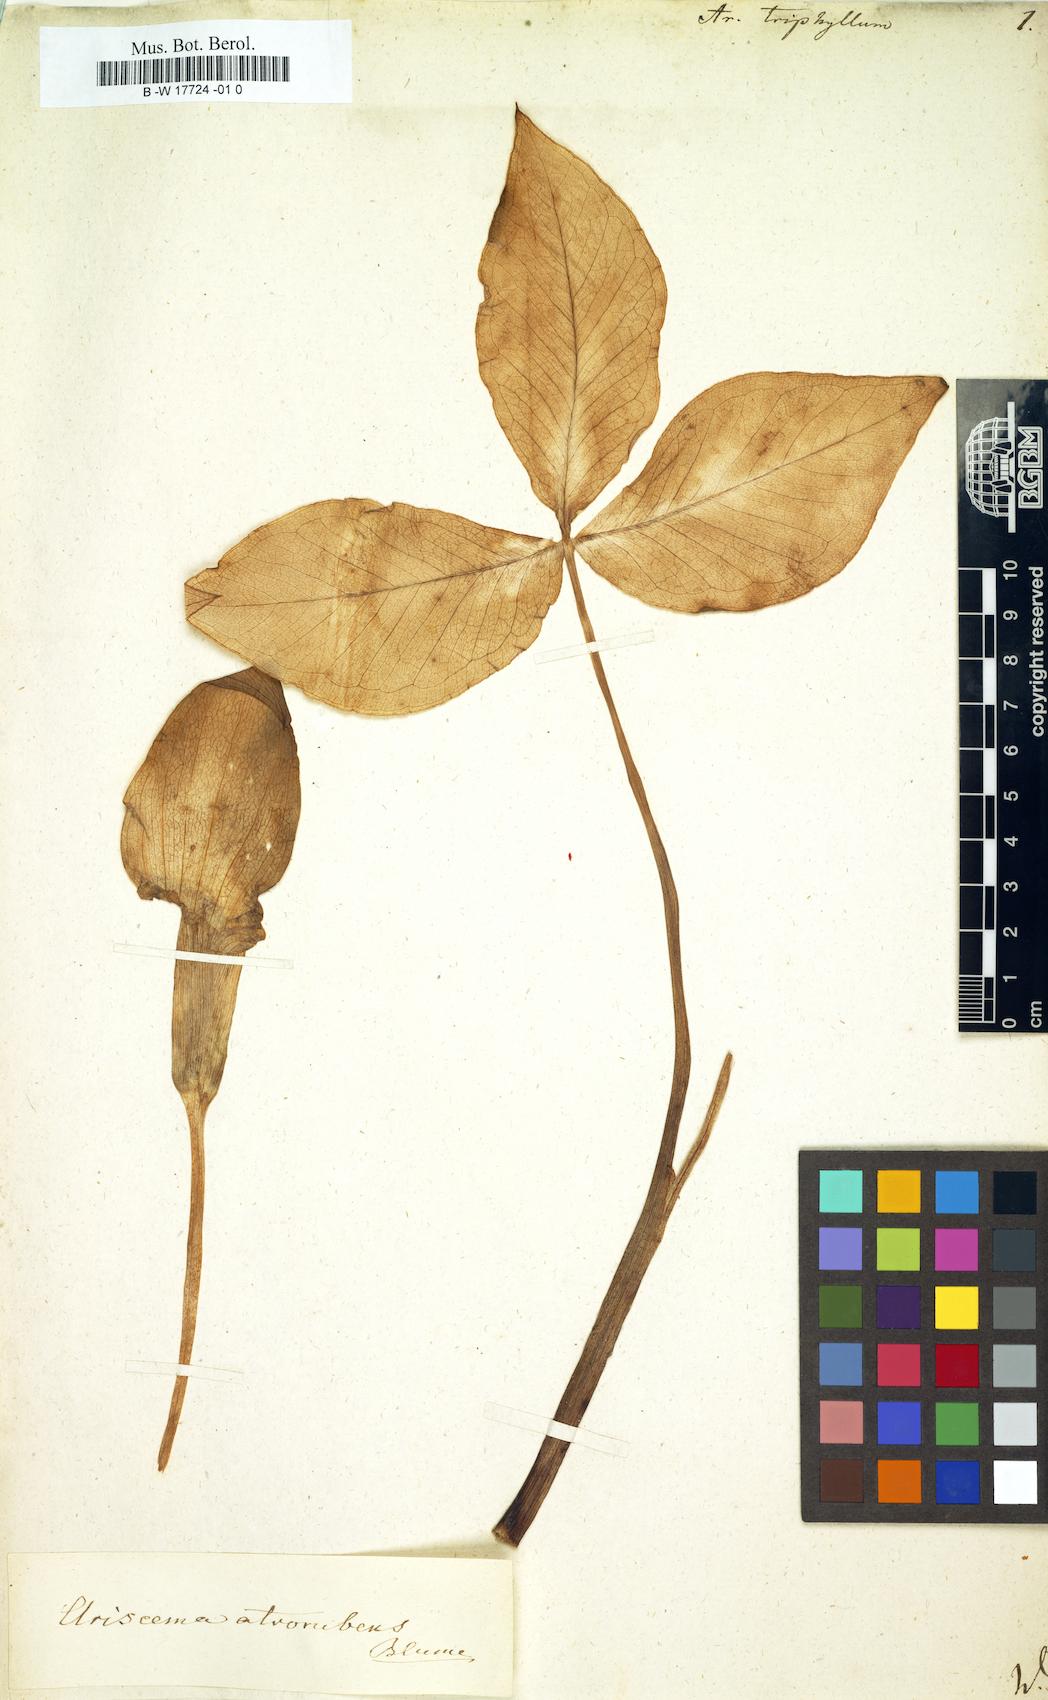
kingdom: Plantae
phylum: Tracheophyta
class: Liliopsida
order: Alismatales
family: Araceae
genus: Arum
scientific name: Arum triphyllum
